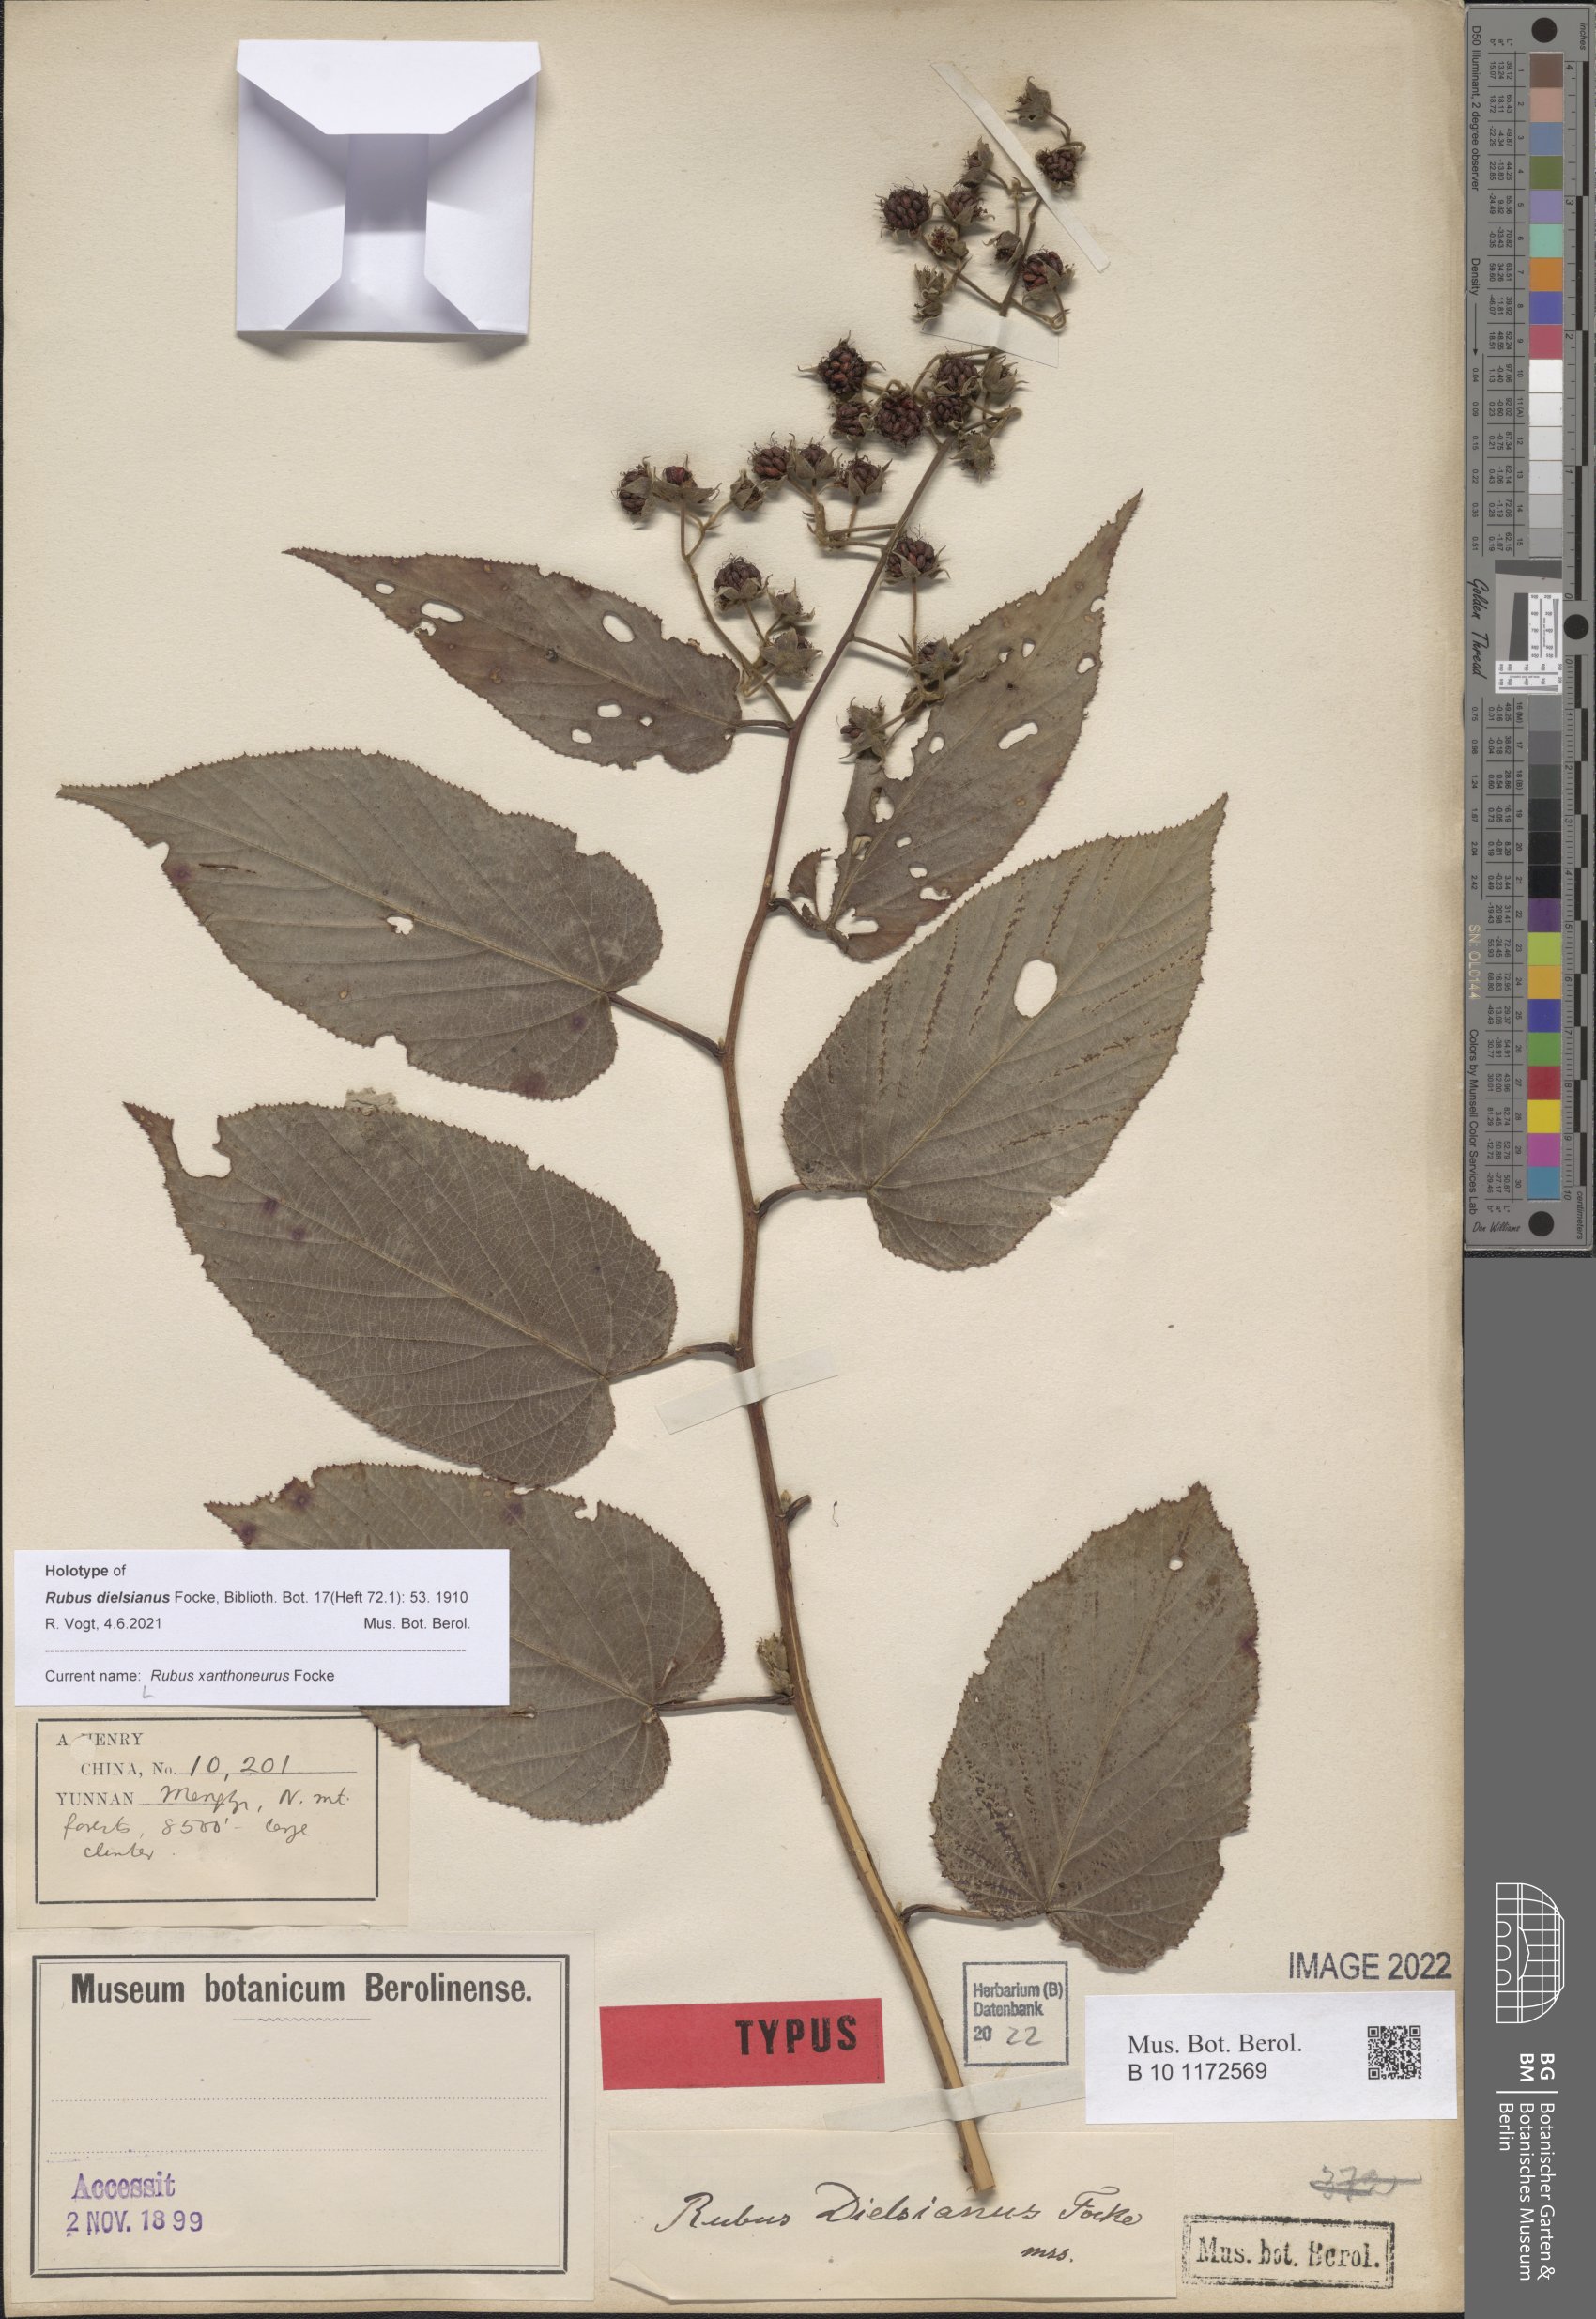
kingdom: Plantae
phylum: Tracheophyta
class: Magnoliopsida
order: Rosales
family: Rosaceae
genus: Rubus
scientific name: Rubus xanthoneurus
